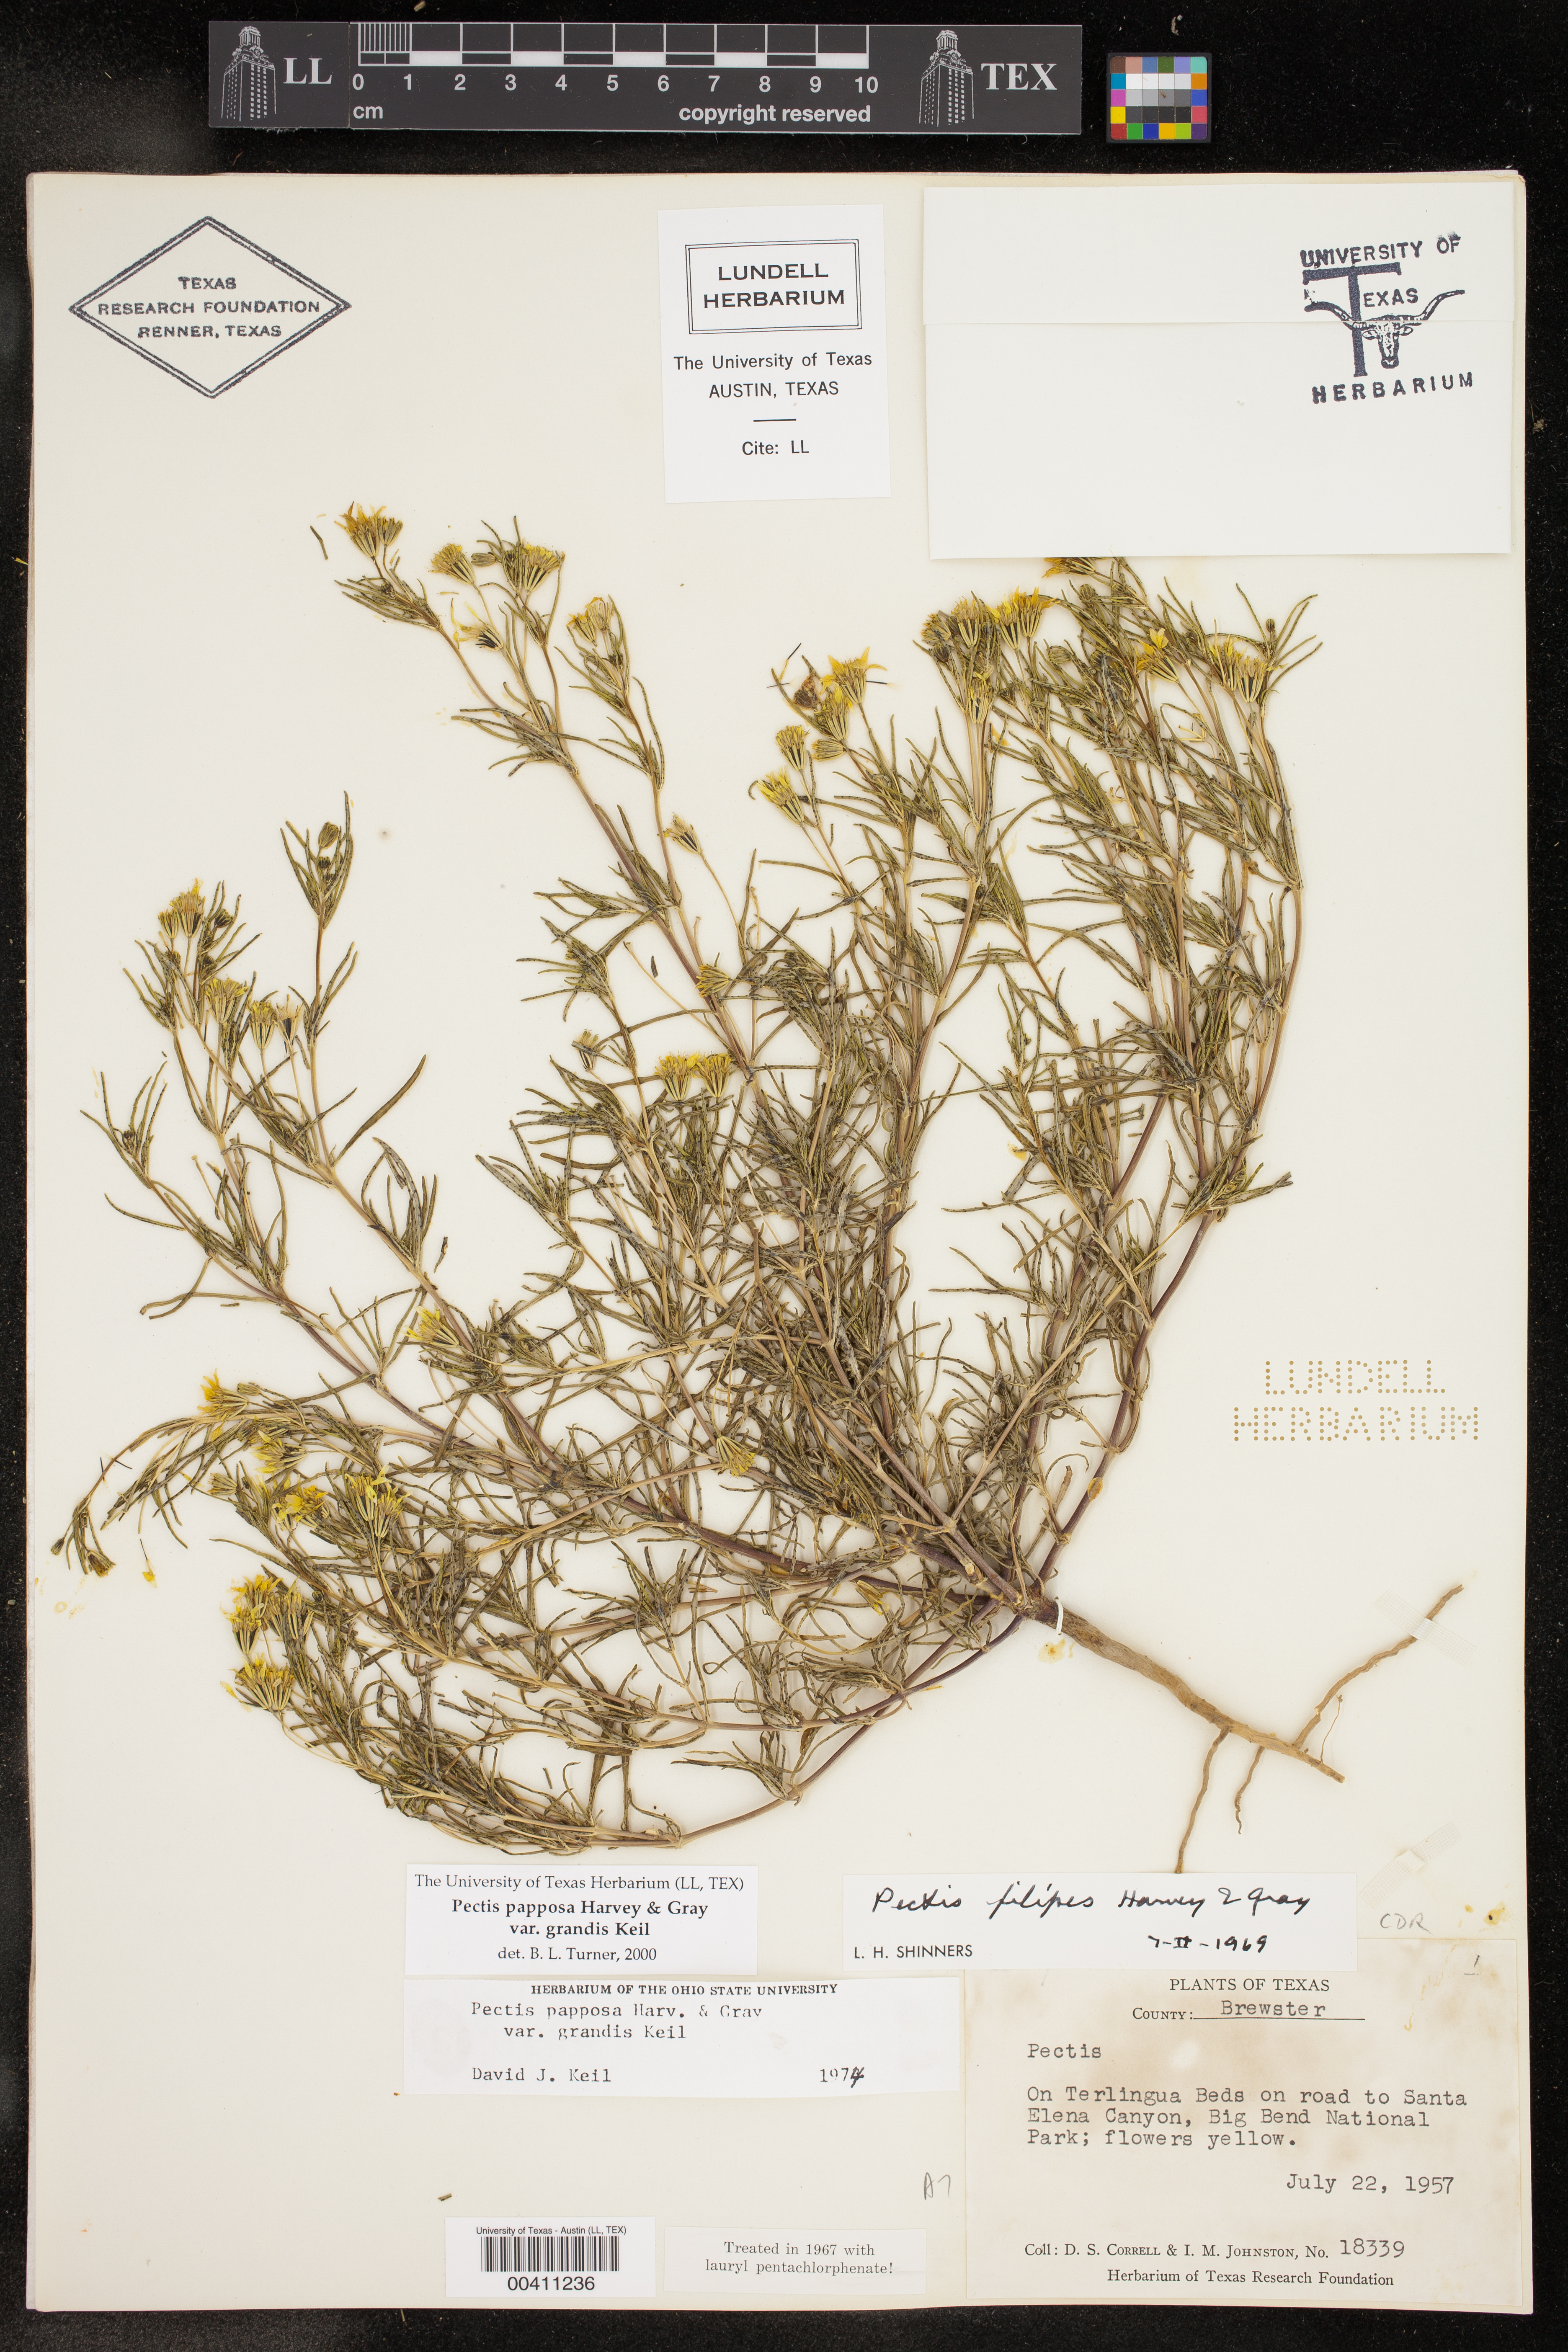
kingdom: Plantae
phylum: Tracheophyta
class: Magnoliopsida
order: Asterales
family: Asteraceae
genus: Pectis
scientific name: Pectis papposa
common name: Many-bristle chinchweed
